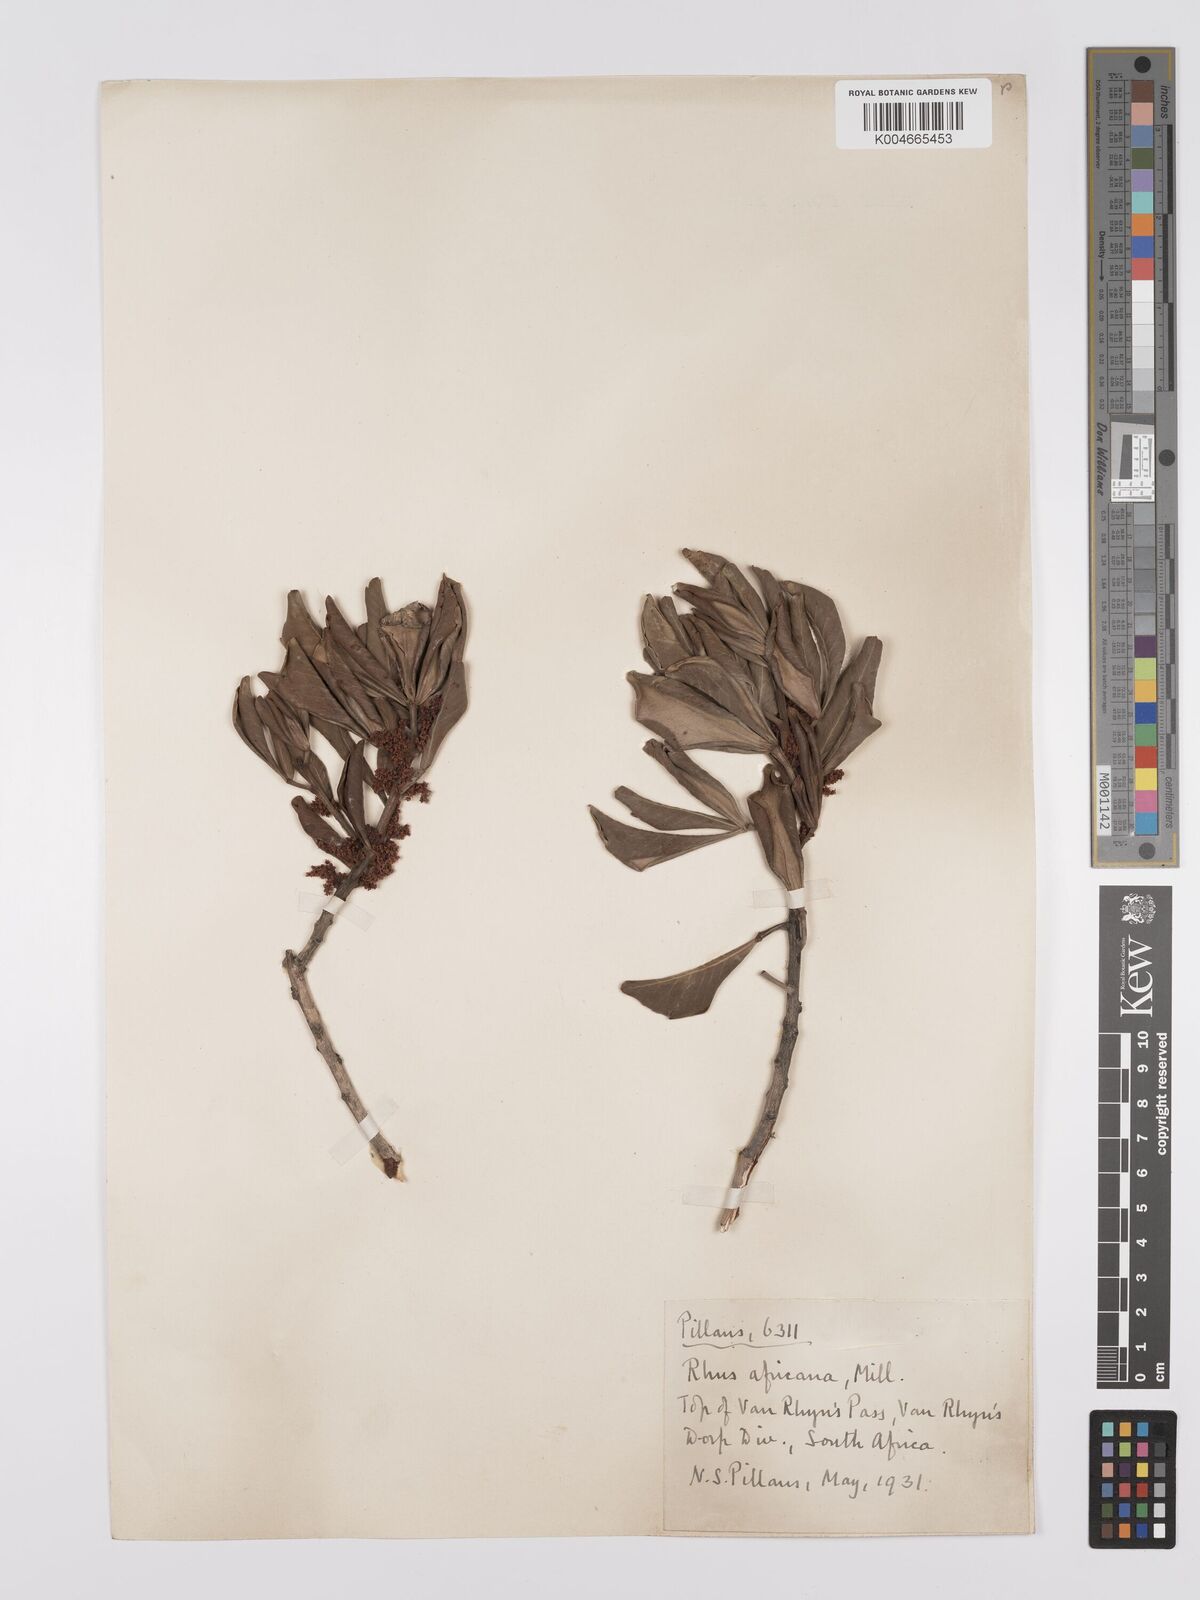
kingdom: Plantae
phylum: Tracheophyta
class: Magnoliopsida
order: Sapindales
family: Anacardiaceae
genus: Searsia
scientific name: Searsia lucida
